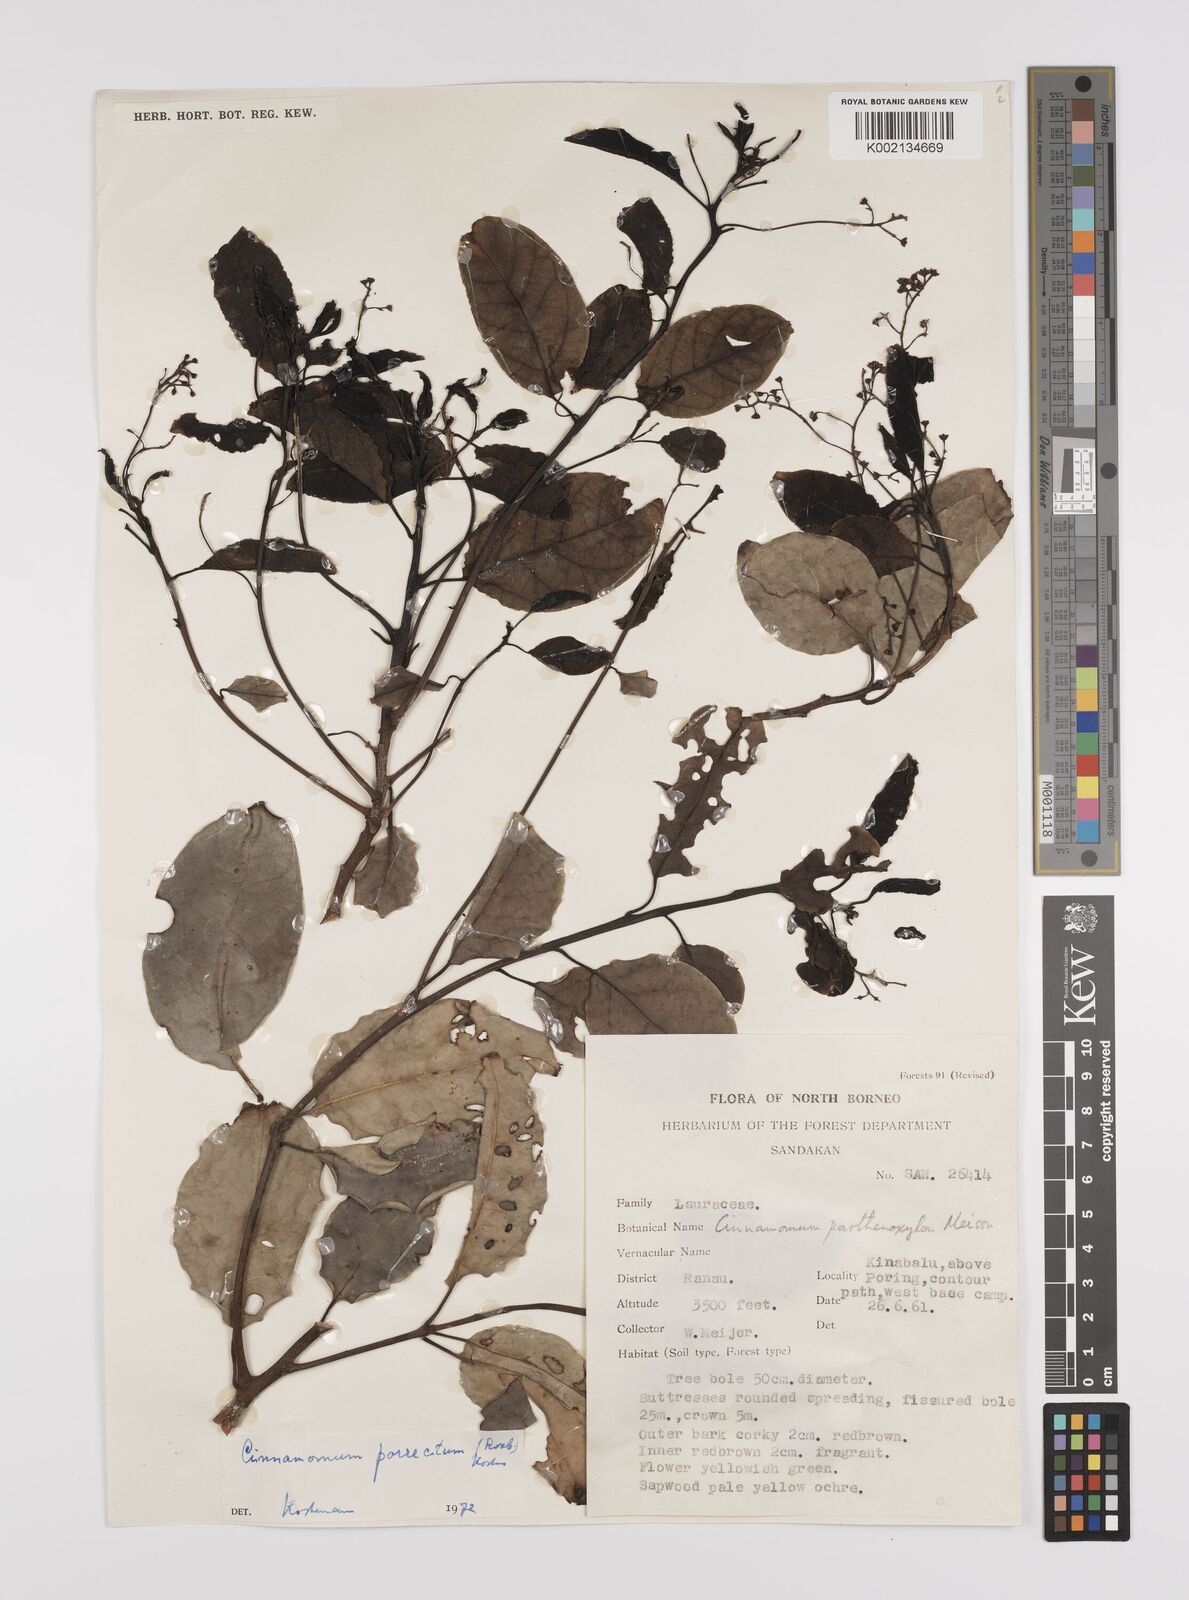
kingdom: Plantae
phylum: Tracheophyta
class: Magnoliopsida
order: Laurales
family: Lauraceae
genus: Cinnamomum
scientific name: Cinnamomum parthenoxylon
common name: Martaban camphor wood
